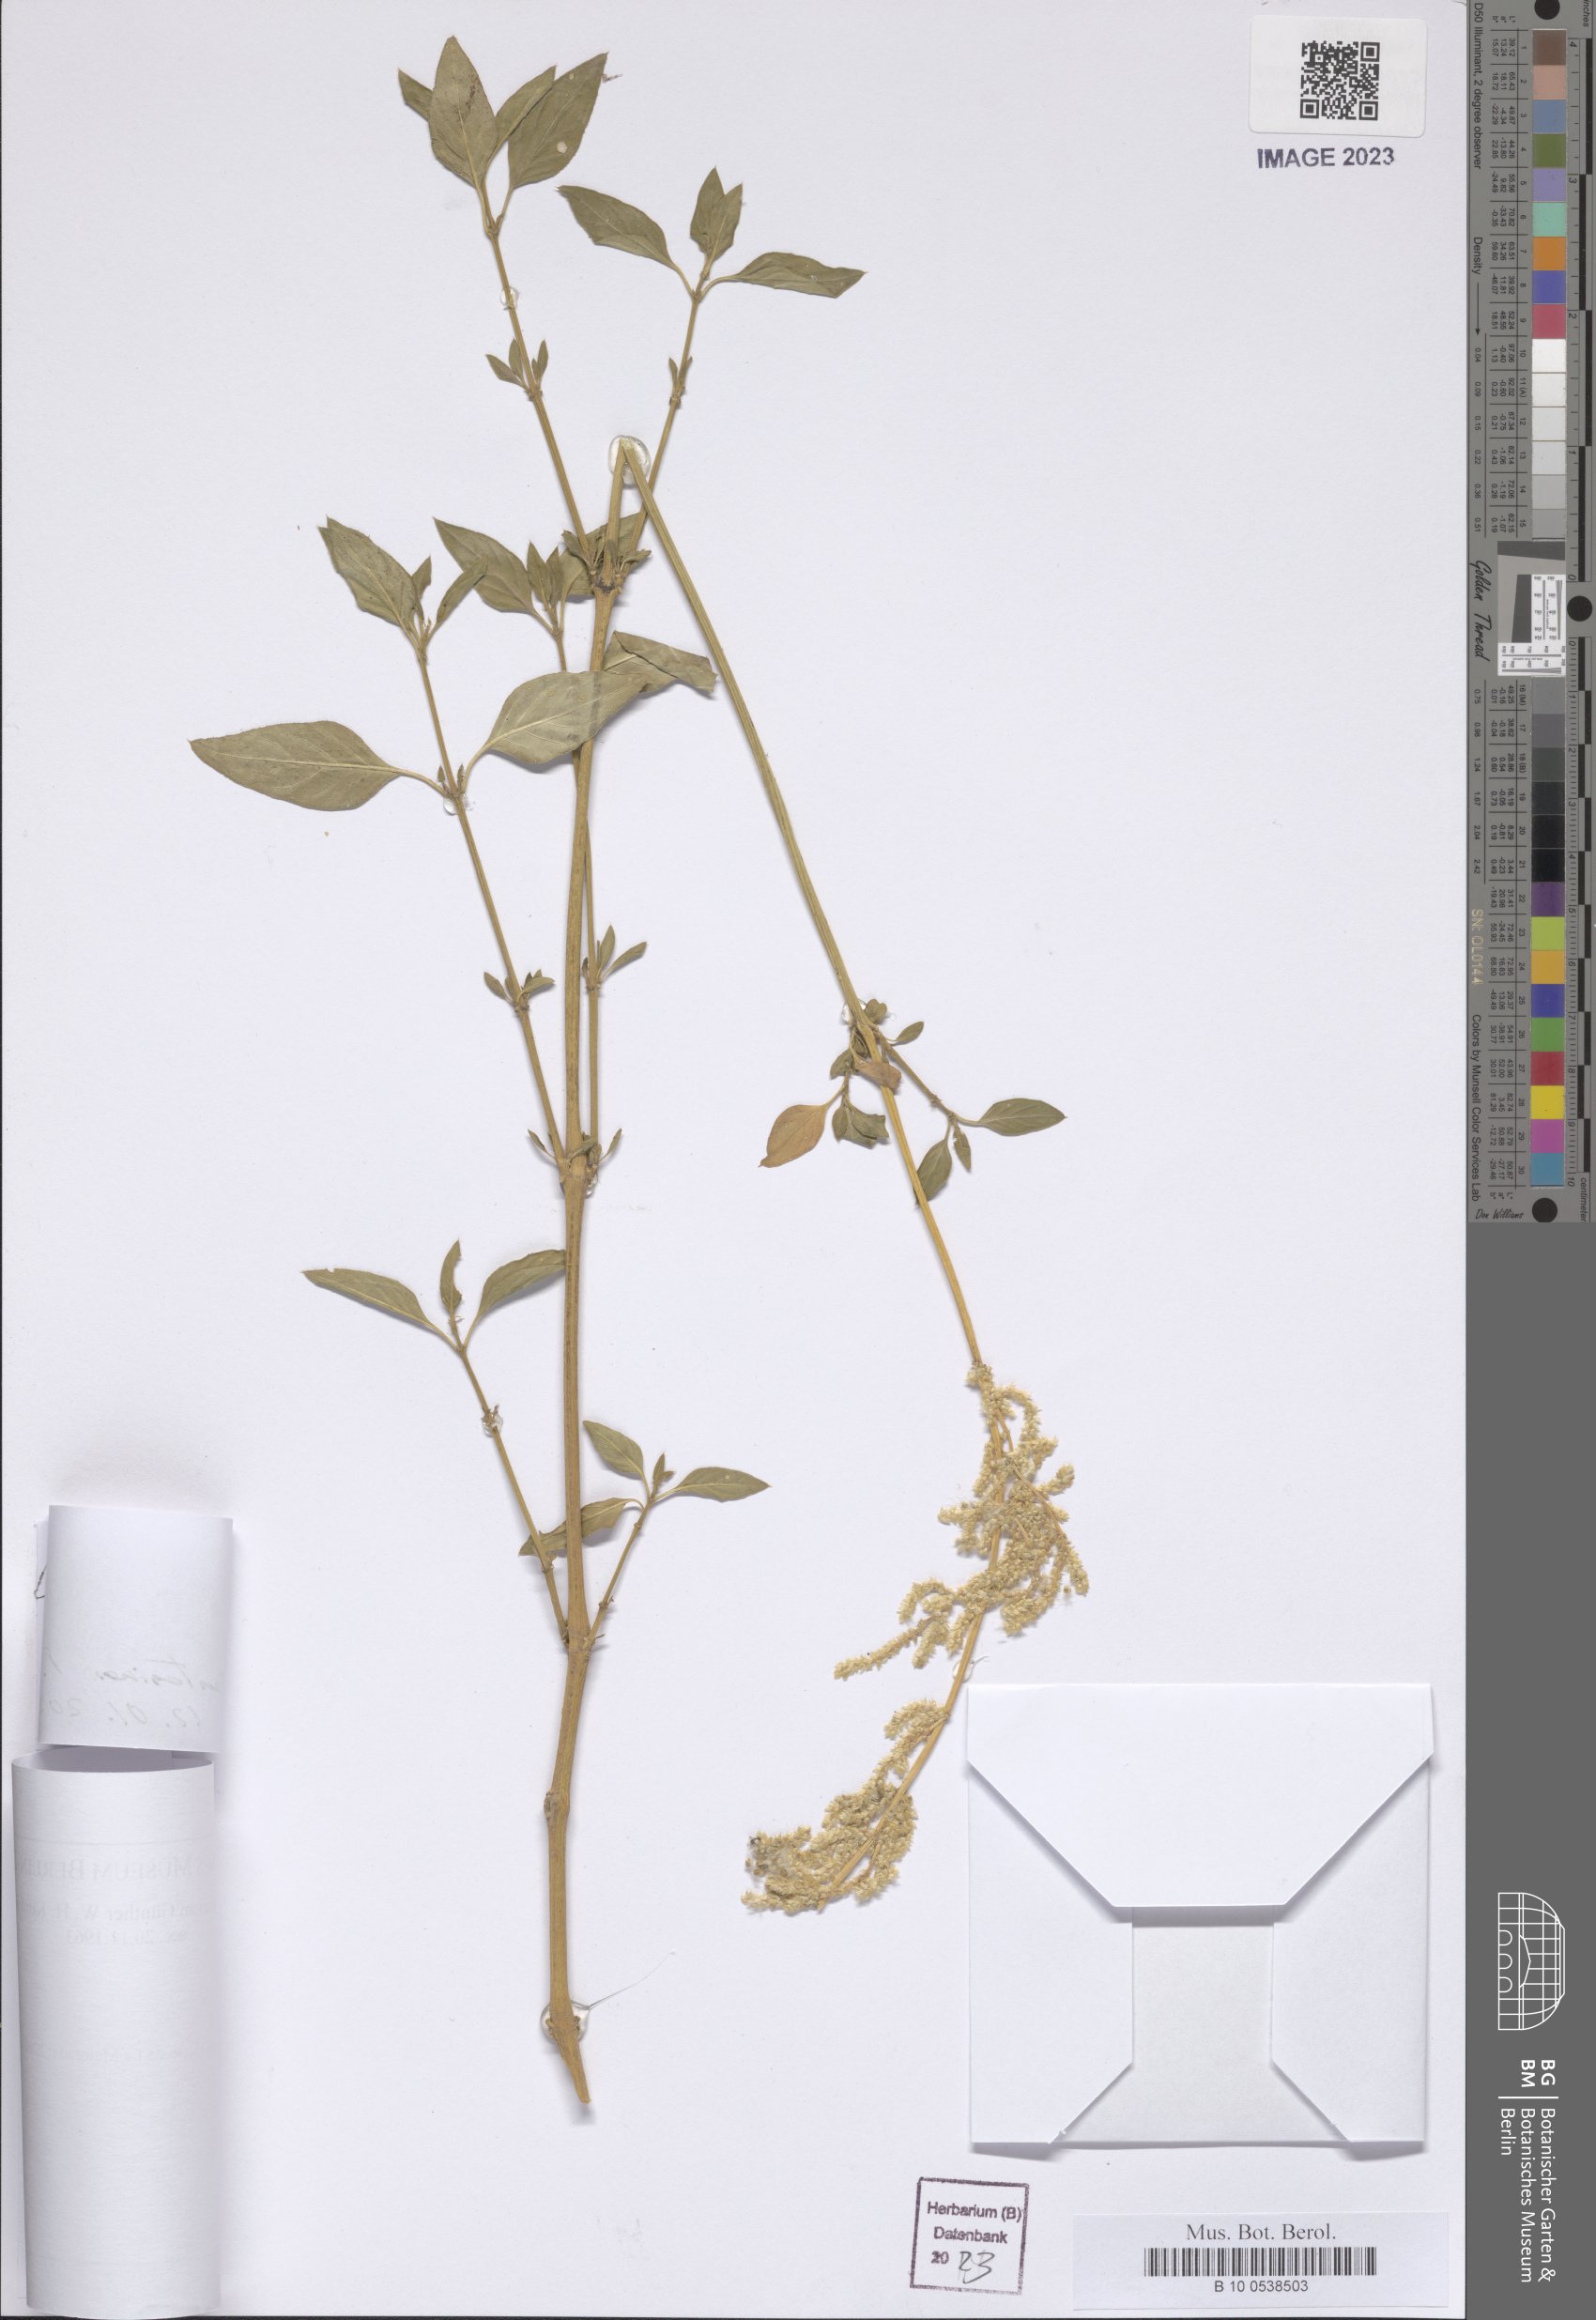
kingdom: Plantae
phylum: Tracheophyta
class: Magnoliopsida
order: Caryophyllales
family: Amaranthaceae
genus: Celosia
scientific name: Celosia
